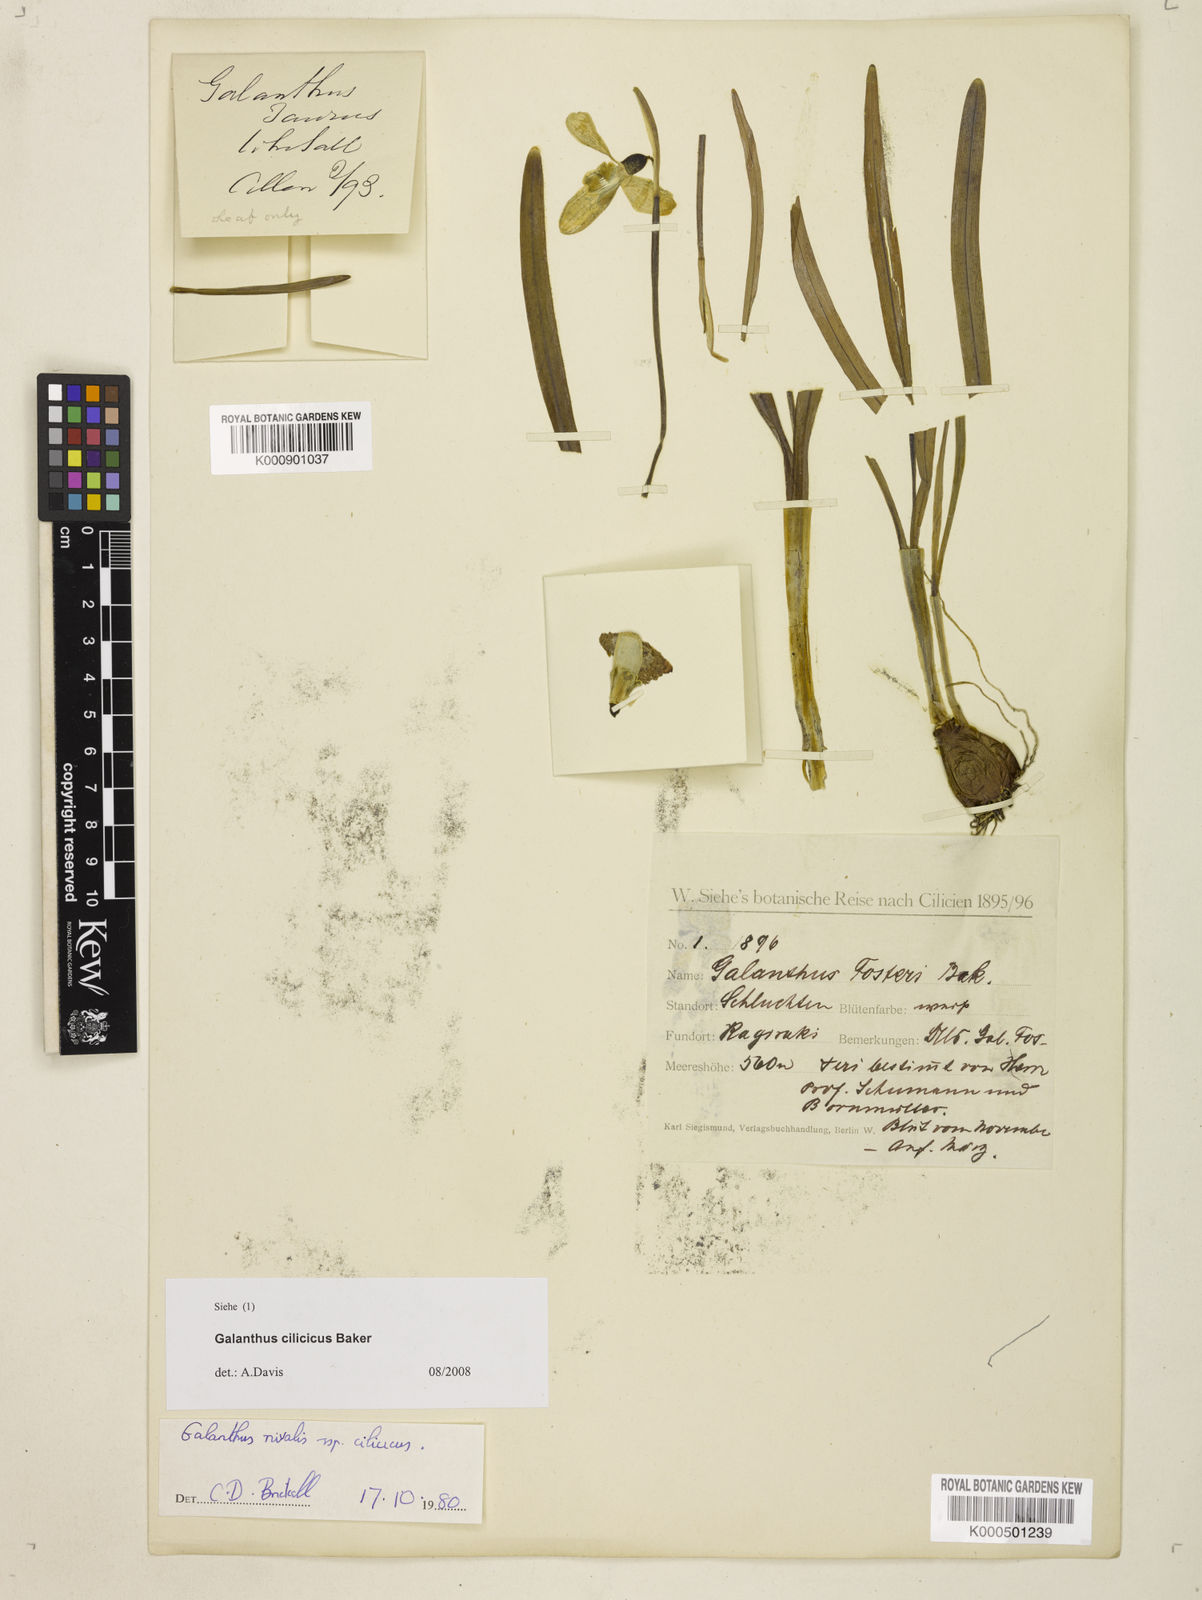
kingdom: Plantae
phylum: Tracheophyta
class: Liliopsida
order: Asparagales
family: Amaryllidaceae
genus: Galanthus
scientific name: Galanthus cilicicus
